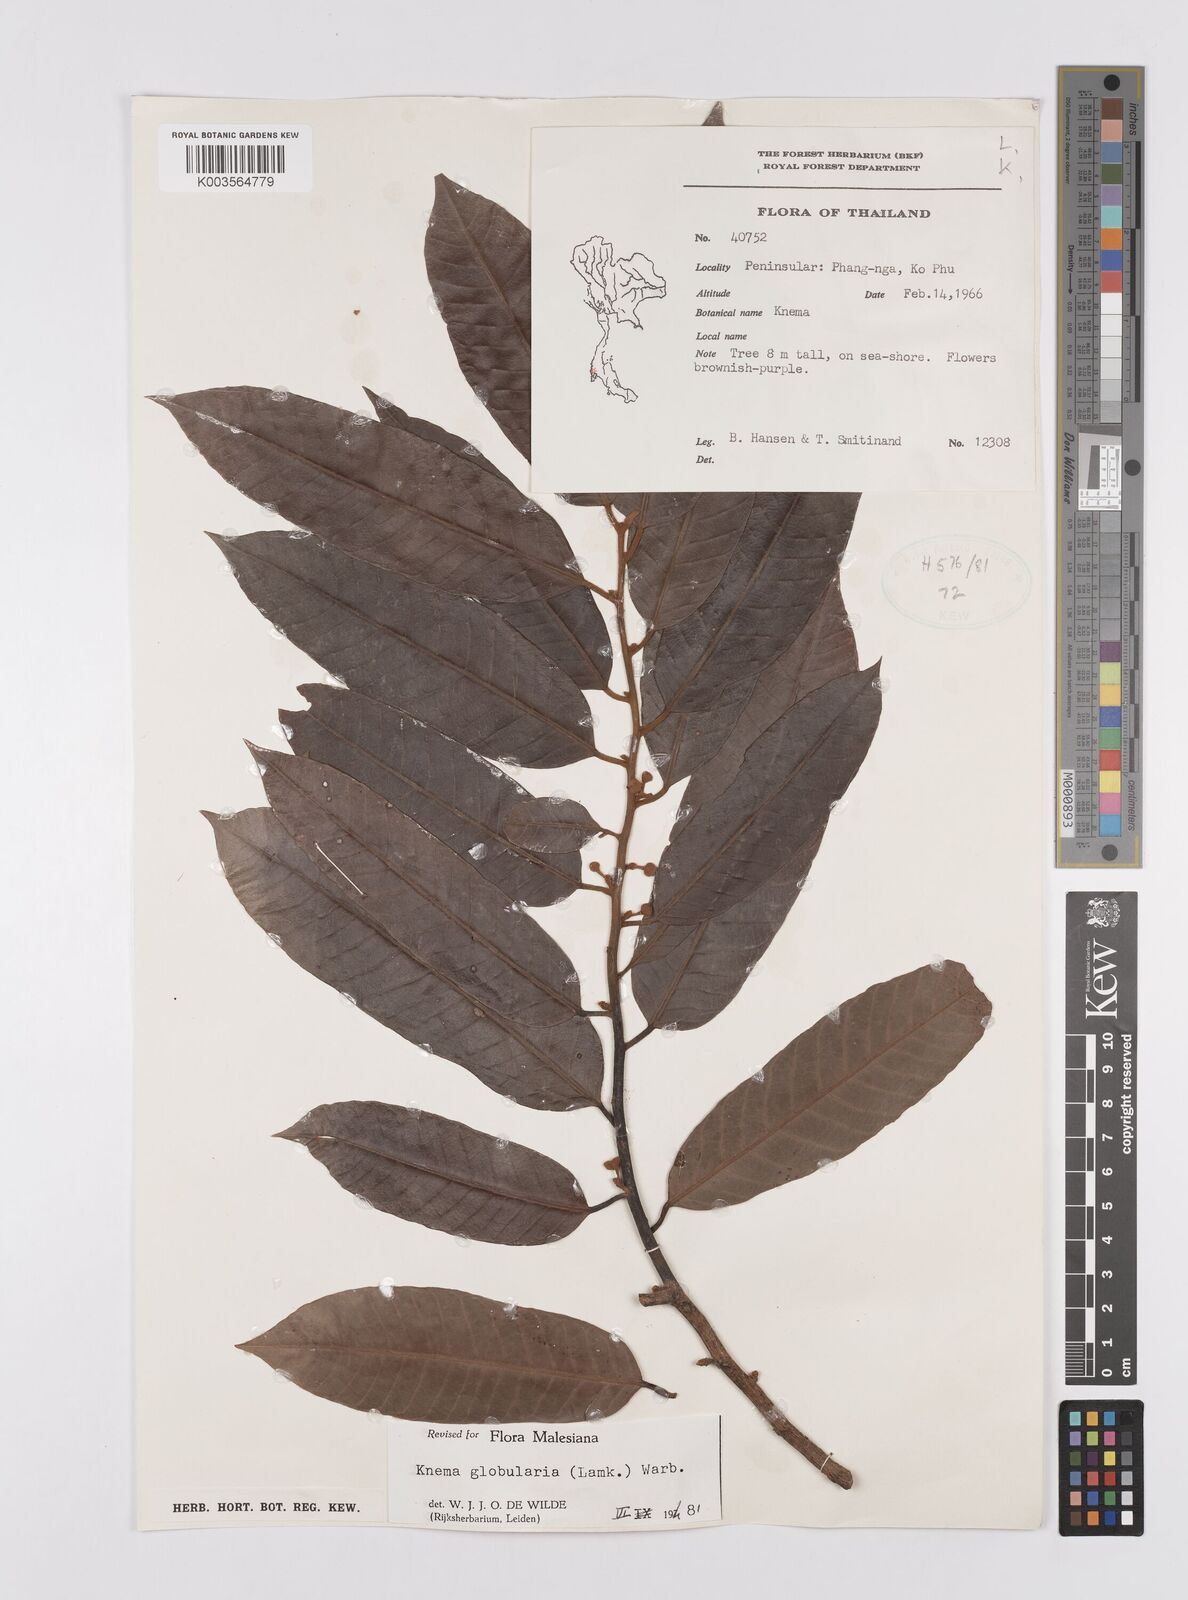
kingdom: Plantae
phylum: Tracheophyta
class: Magnoliopsida
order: Magnoliales
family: Myristicaceae
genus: Knema
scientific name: Knema globularia
